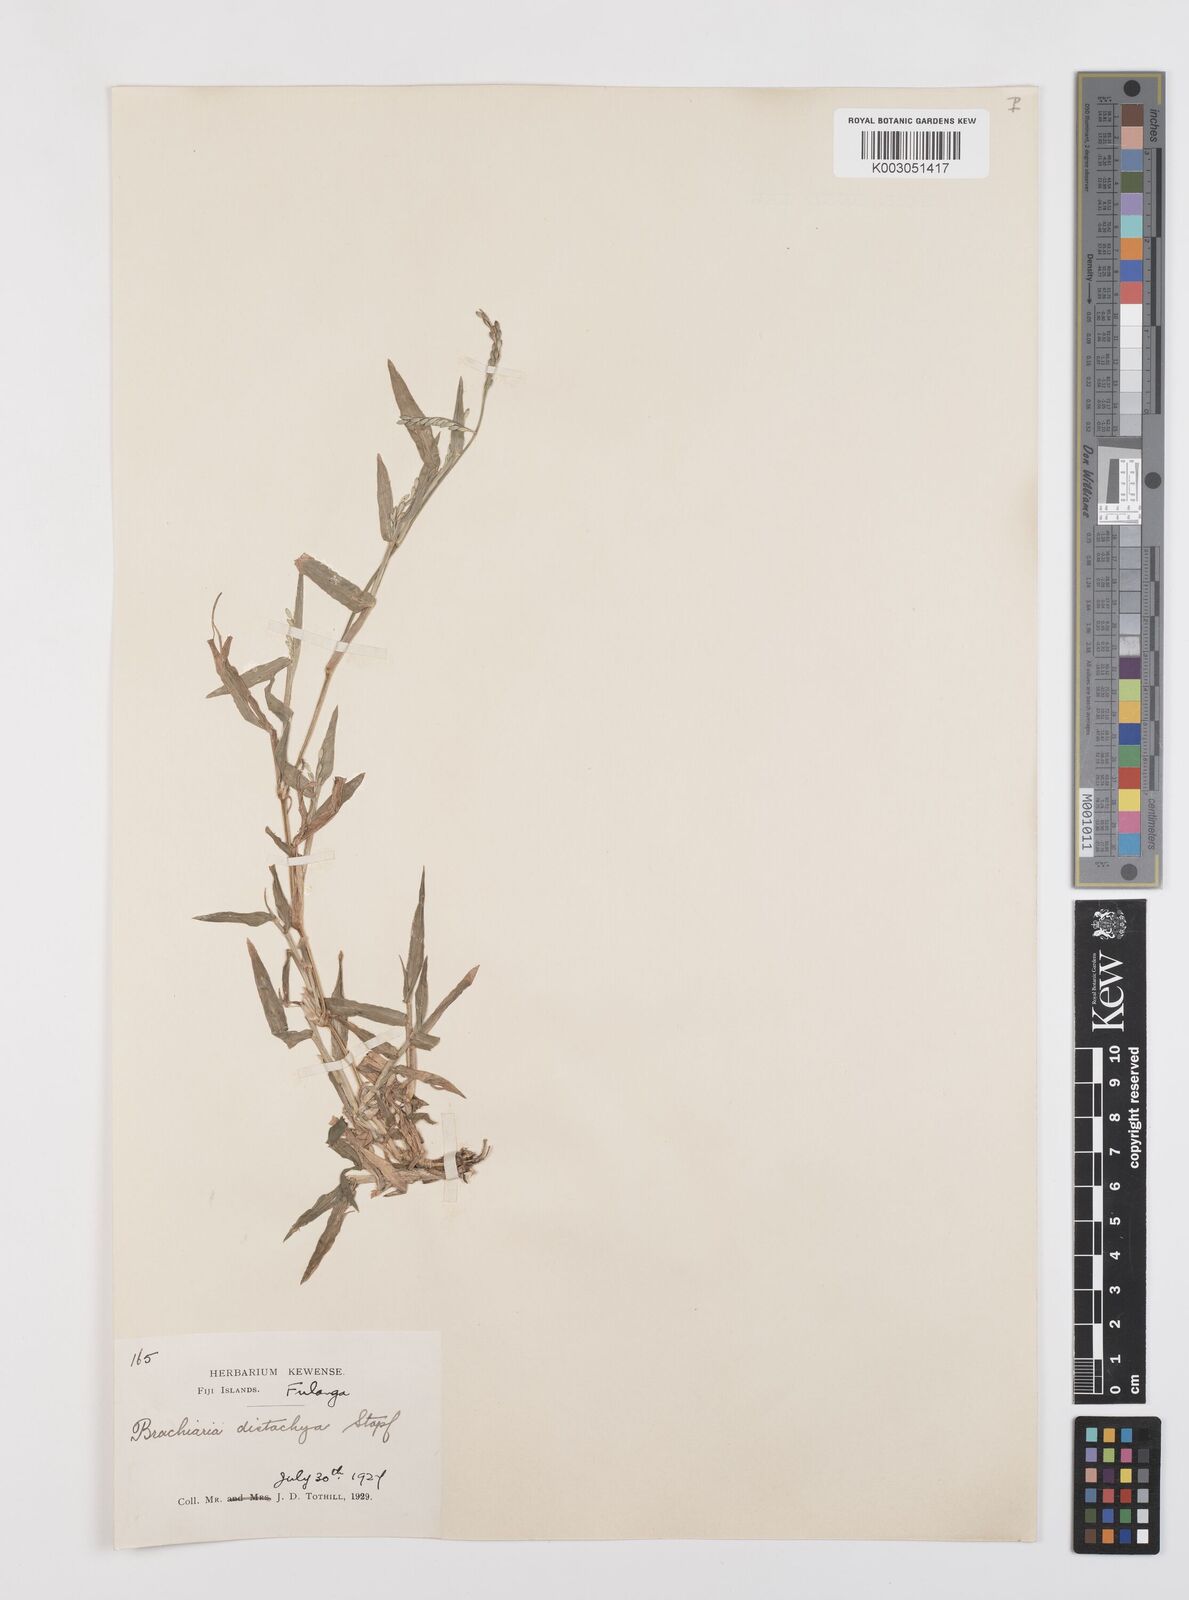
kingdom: Plantae
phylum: Tracheophyta
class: Liliopsida
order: Poales
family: Poaceae
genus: Urochloa
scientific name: Urochloa subquadripara
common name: Armgrass millet
